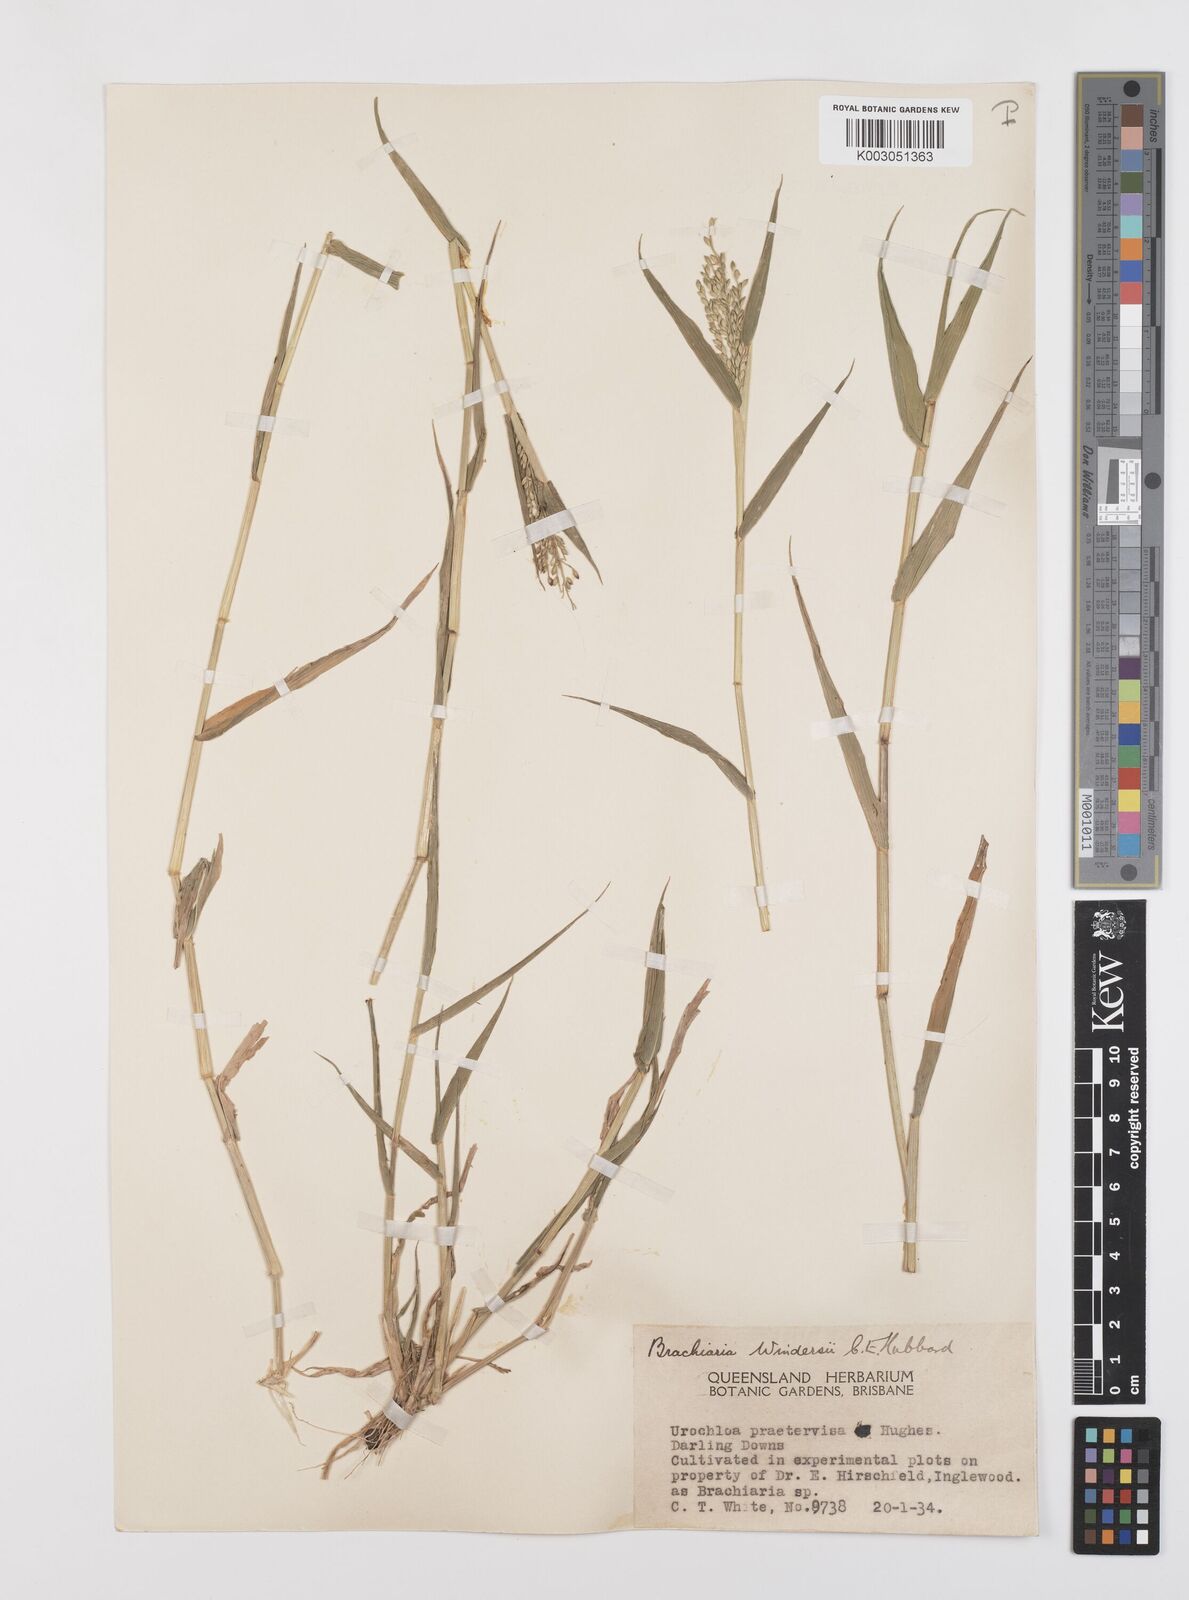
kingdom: Plantae
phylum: Tracheophyta
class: Liliopsida
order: Poales
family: Poaceae
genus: Urochloa
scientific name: Urochloa whiteana
